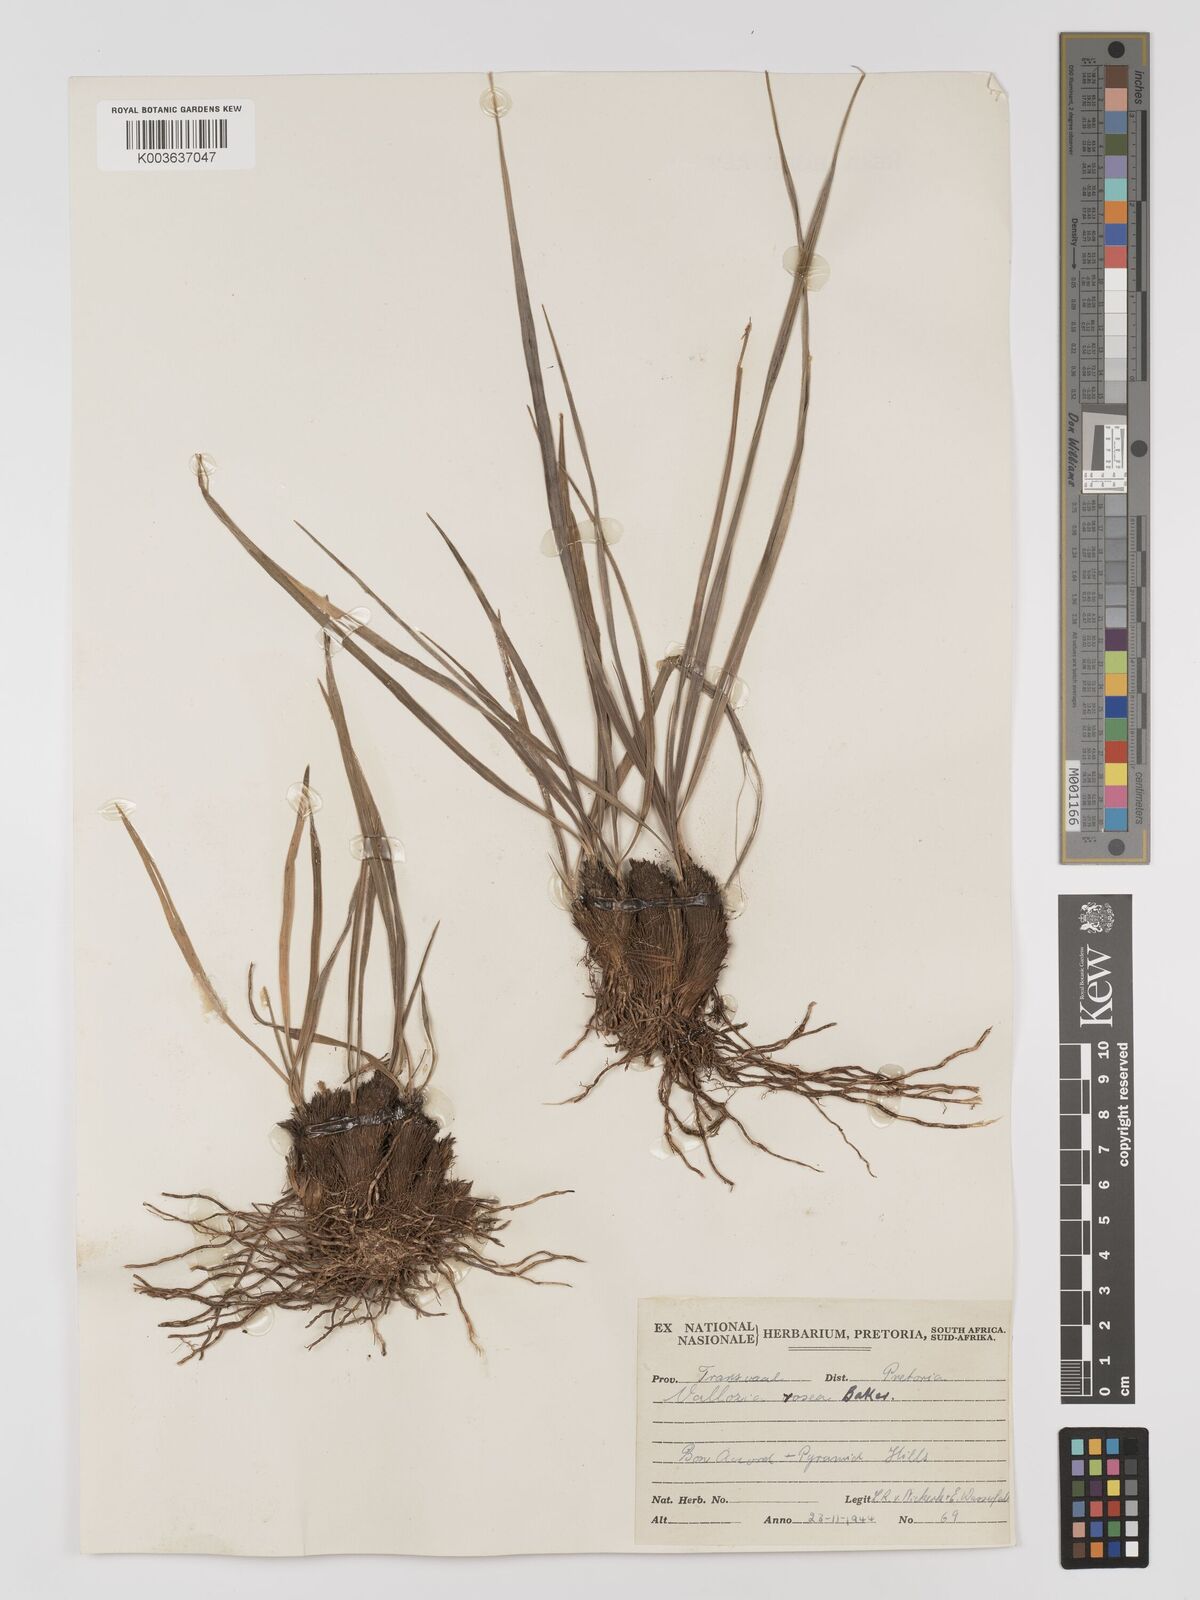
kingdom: Plantae
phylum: Tracheophyta
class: Liliopsida
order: Pandanales
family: Velloziaceae
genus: Xerophyta
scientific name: Xerophyta rosea
